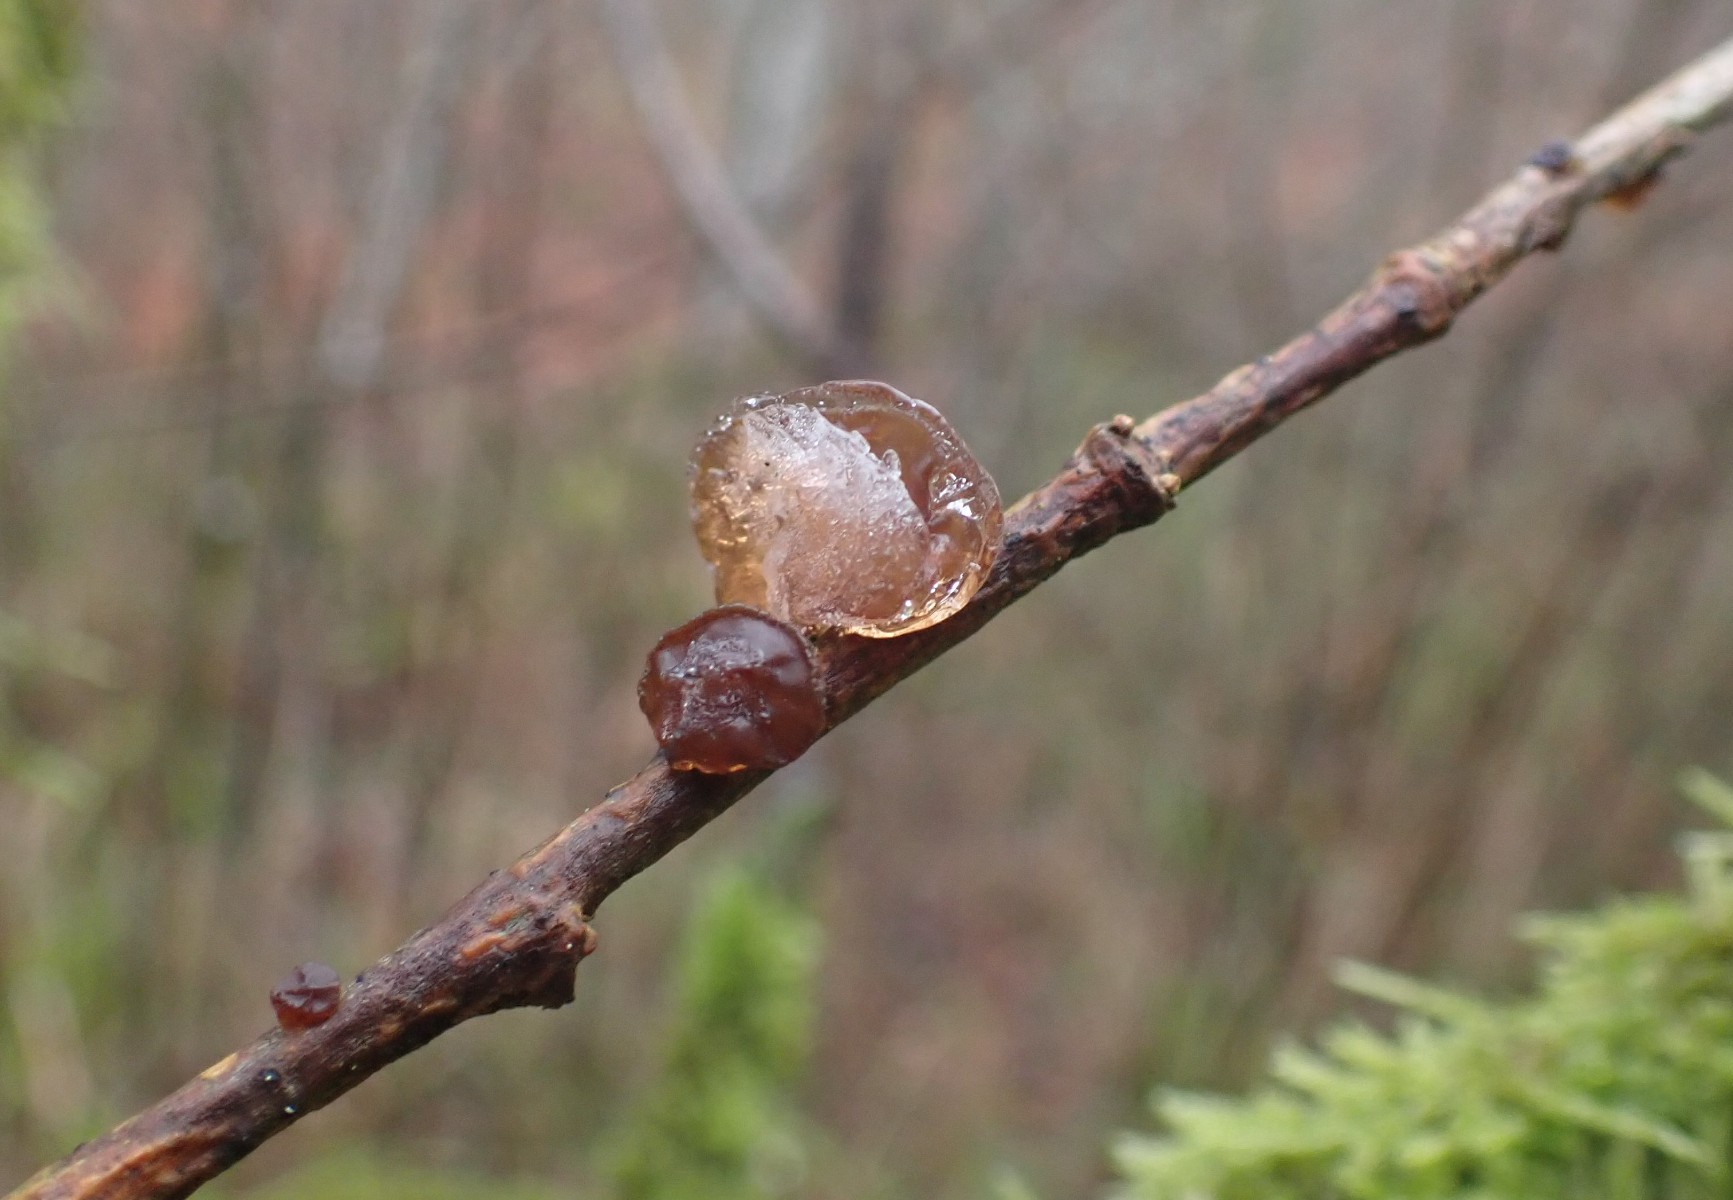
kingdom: Fungi
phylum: Basidiomycota
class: Agaricomycetes
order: Auriculariales
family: Auriculariaceae
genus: Exidia
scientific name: Exidia recisa
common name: pile-bævretop
